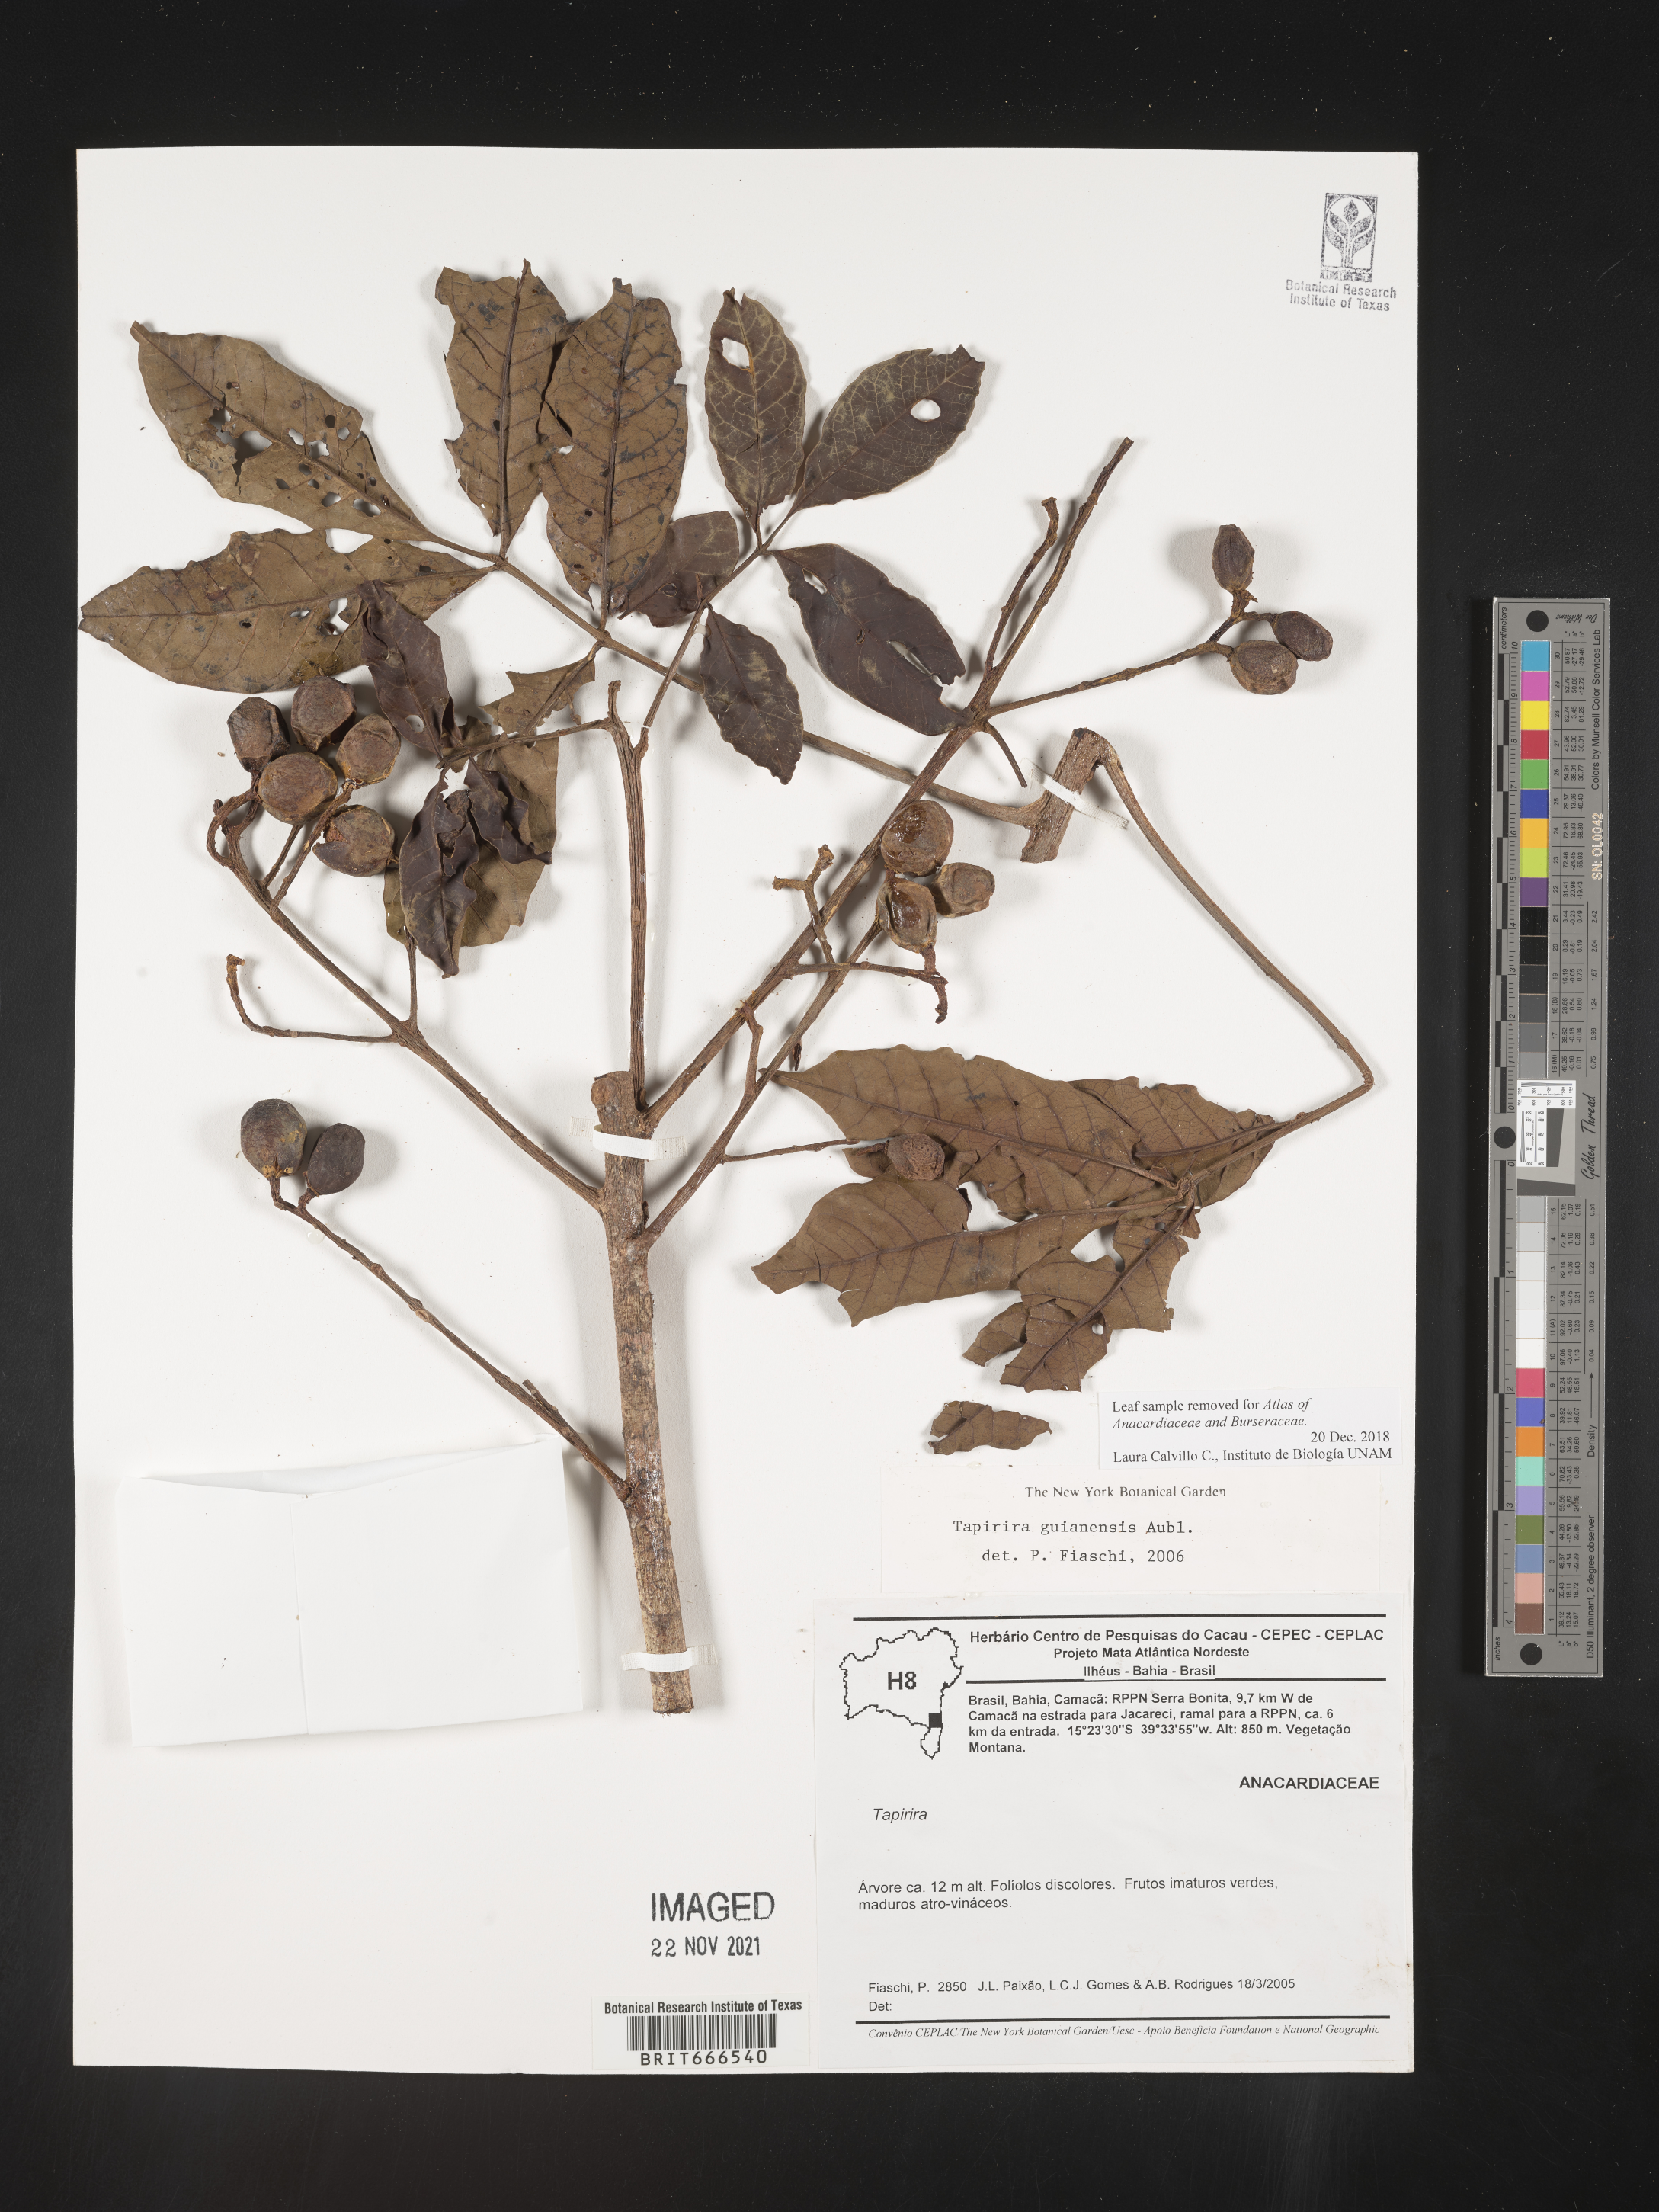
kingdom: Plantae
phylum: Tracheophyta
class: Magnoliopsida
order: Sapindales
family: Anacardiaceae
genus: Tapirira
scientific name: Tapirira guianensis
